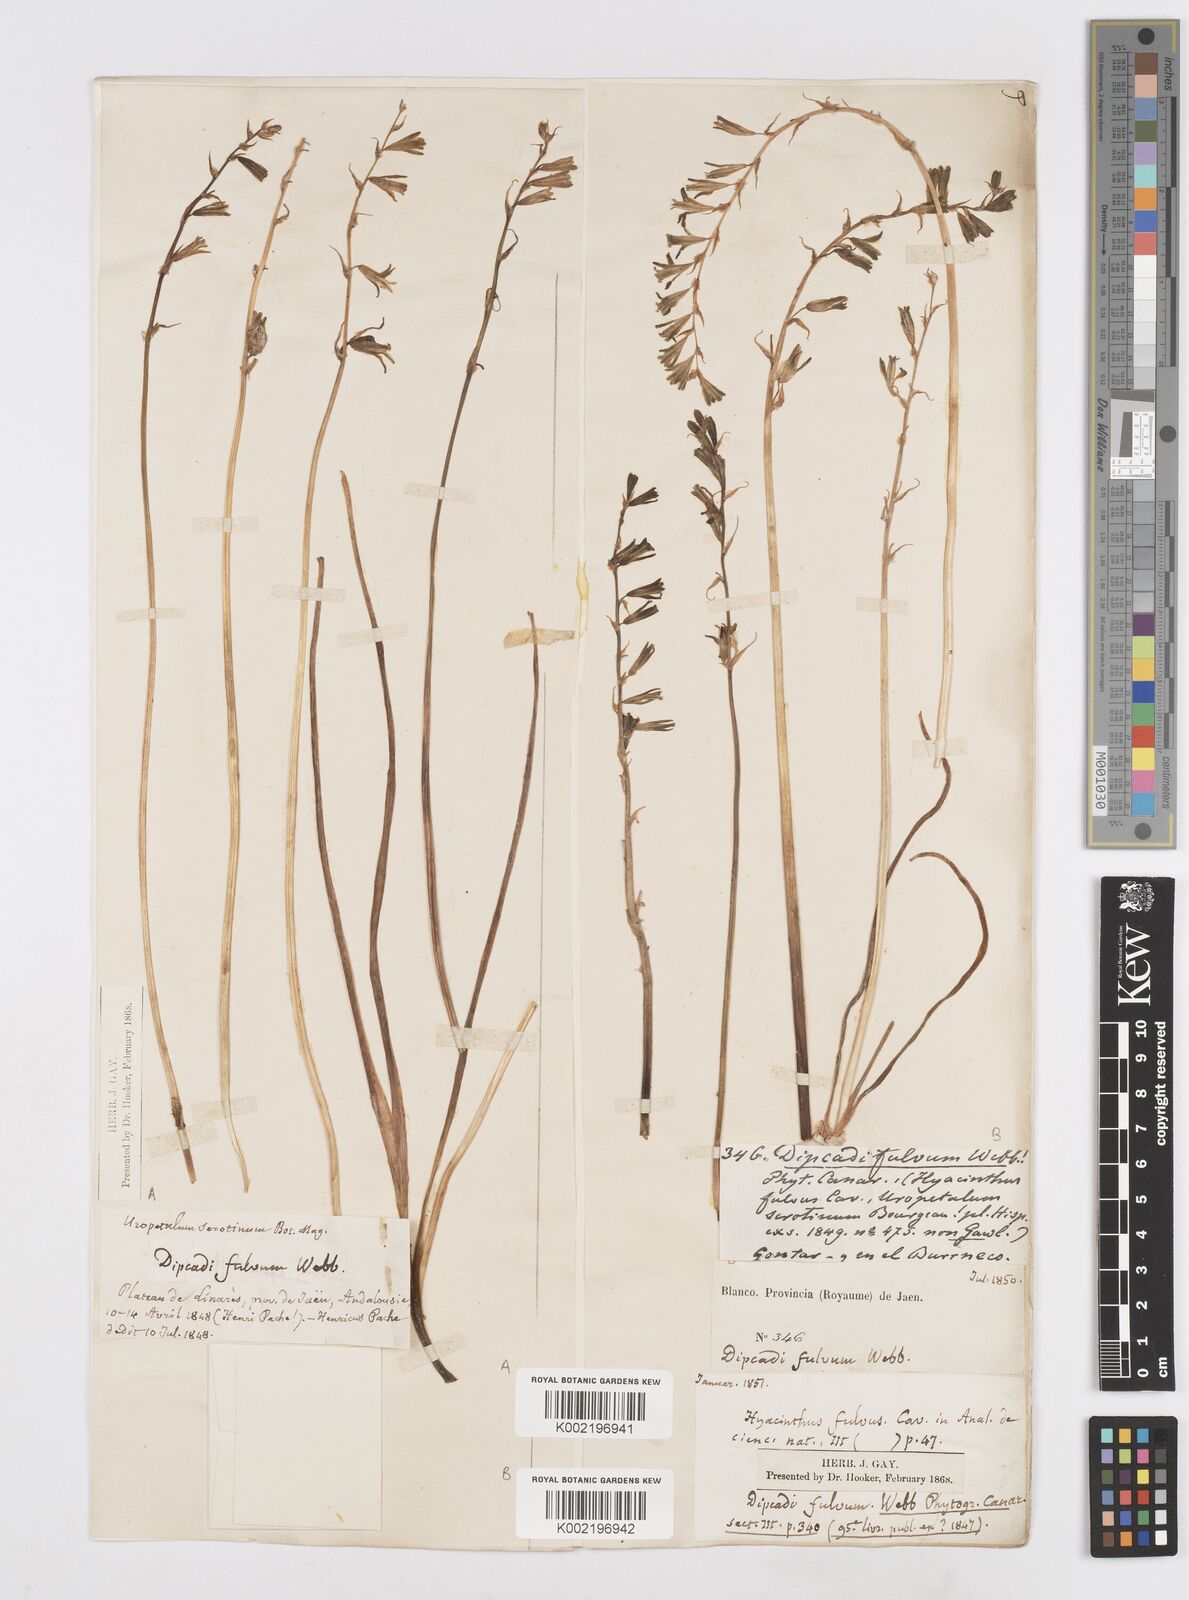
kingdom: Plantae
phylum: Tracheophyta
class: Liliopsida
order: Asparagales
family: Asparagaceae
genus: Dipcadi
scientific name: Dipcadi serotinum
